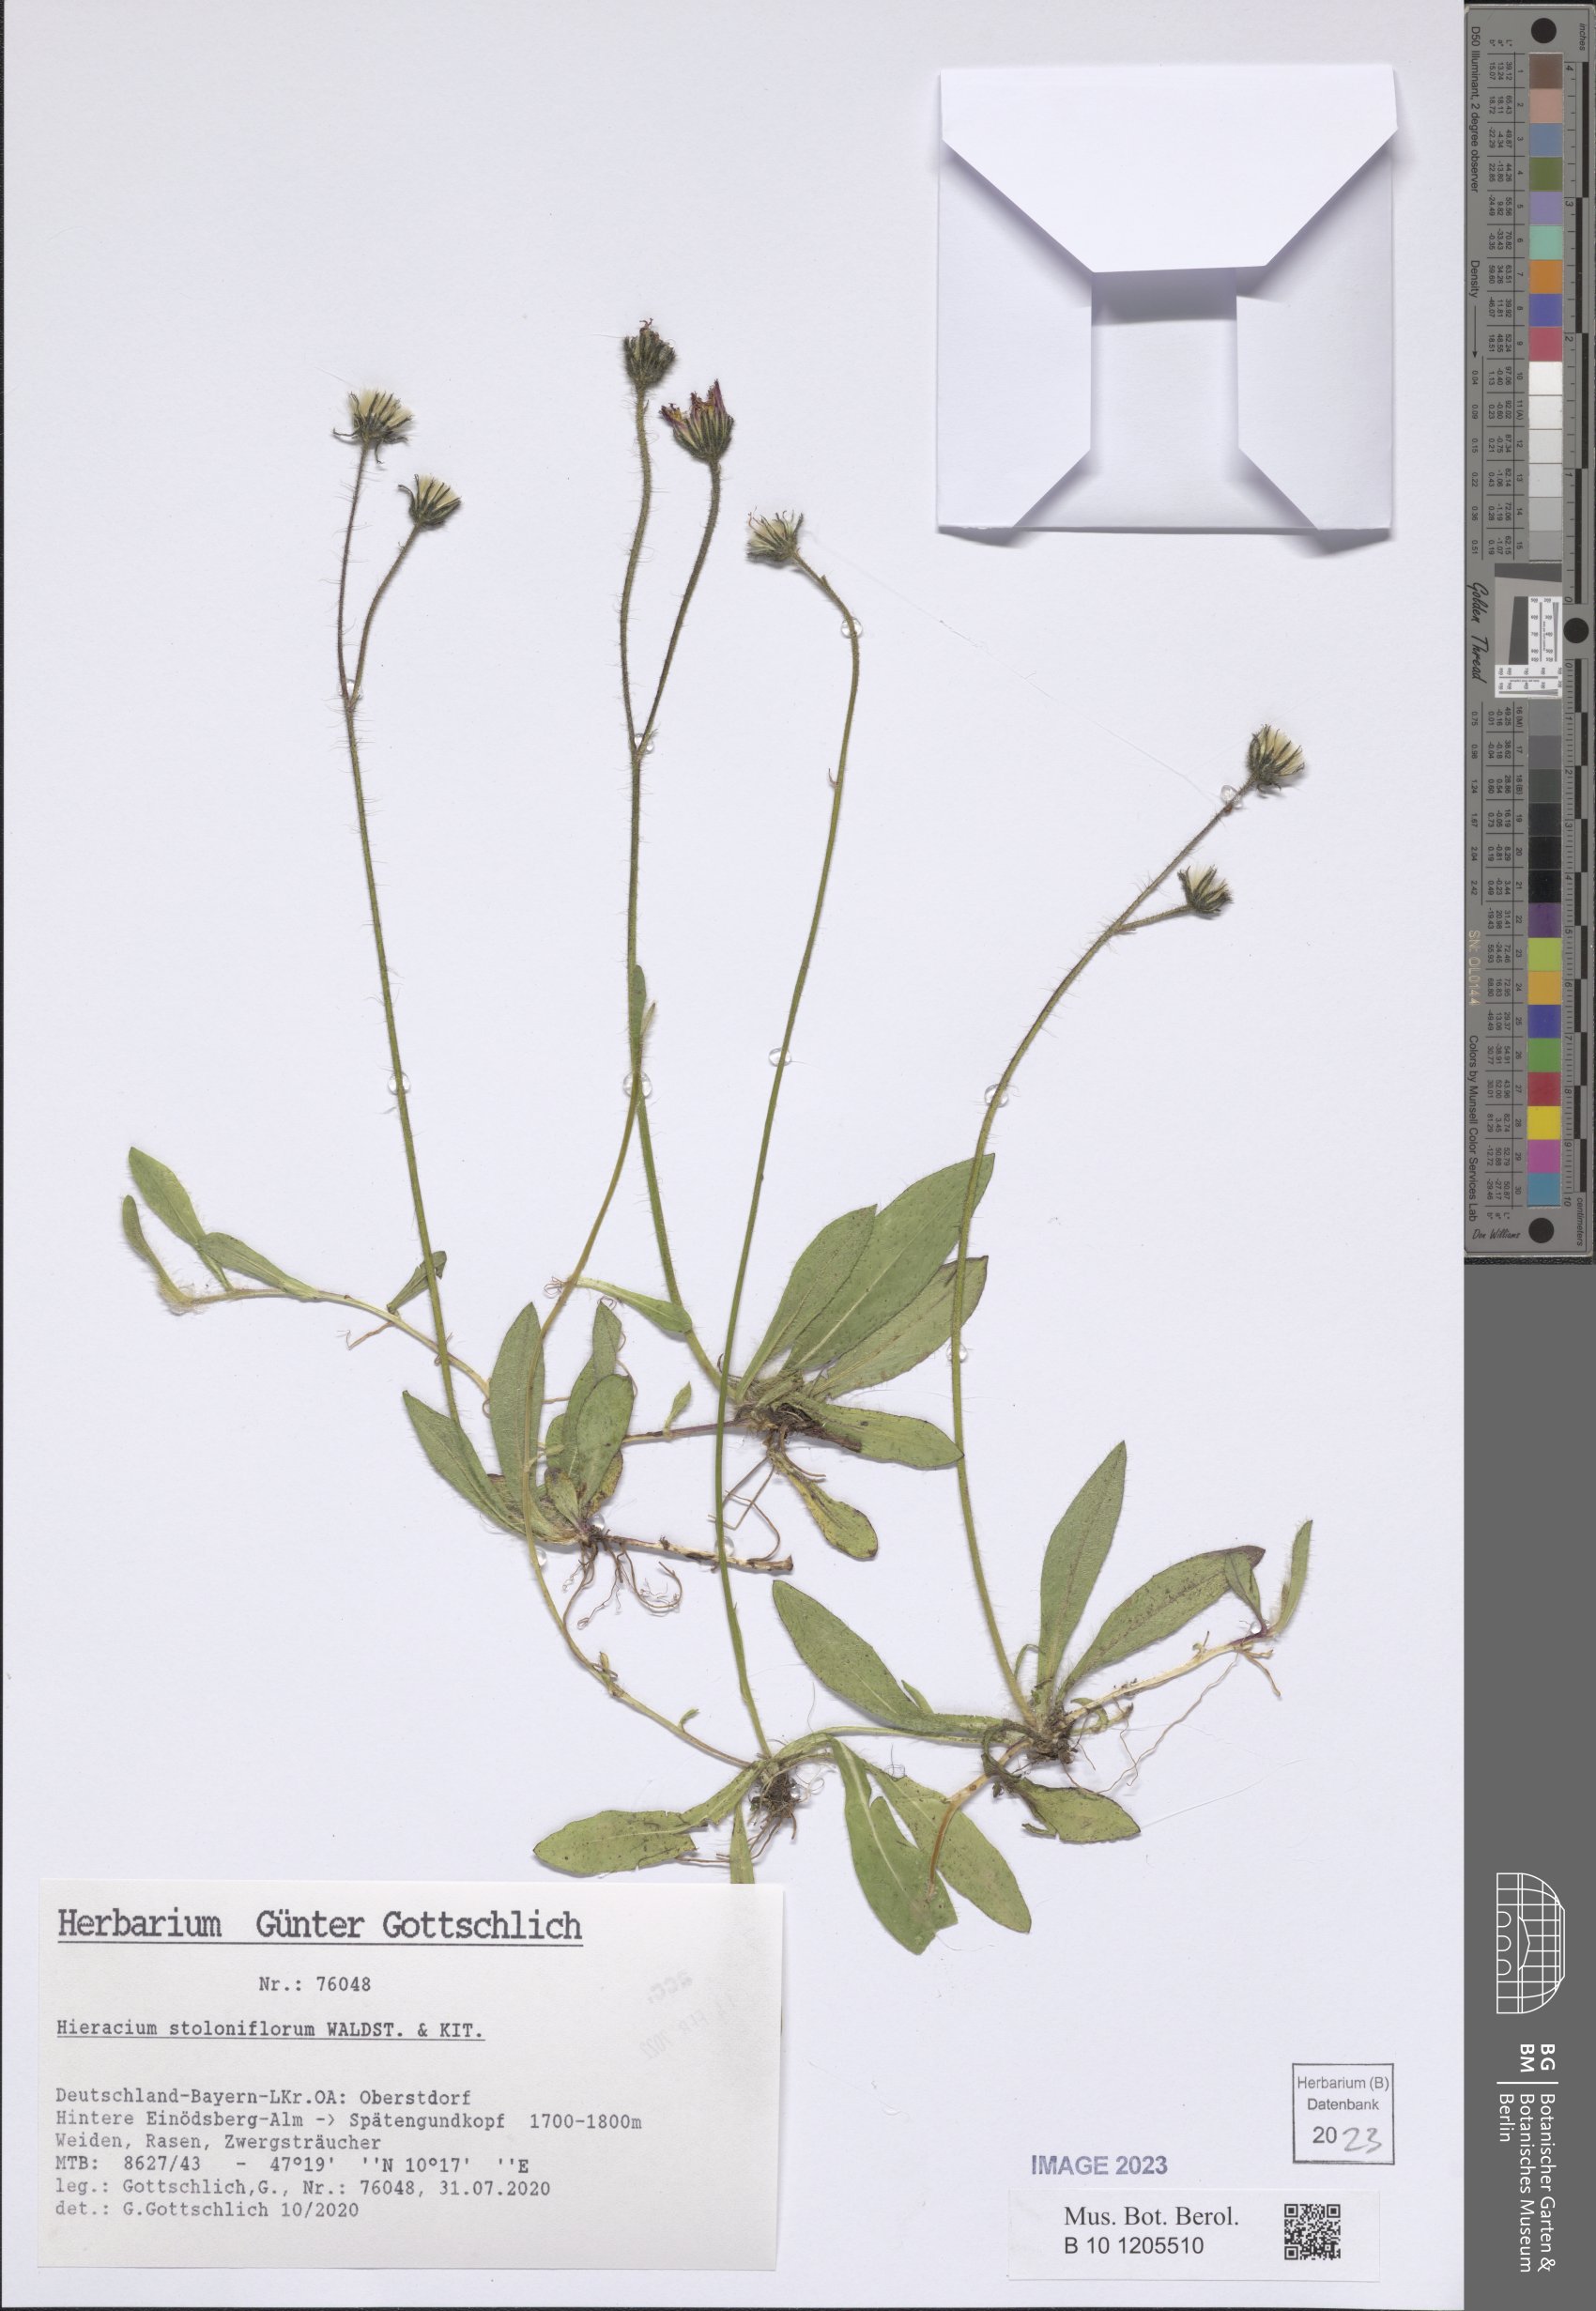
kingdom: Plantae
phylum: Tracheophyta
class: Magnoliopsida
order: Asterales
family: Asteraceae
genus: Pilosella
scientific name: Pilosella stoloniflora
